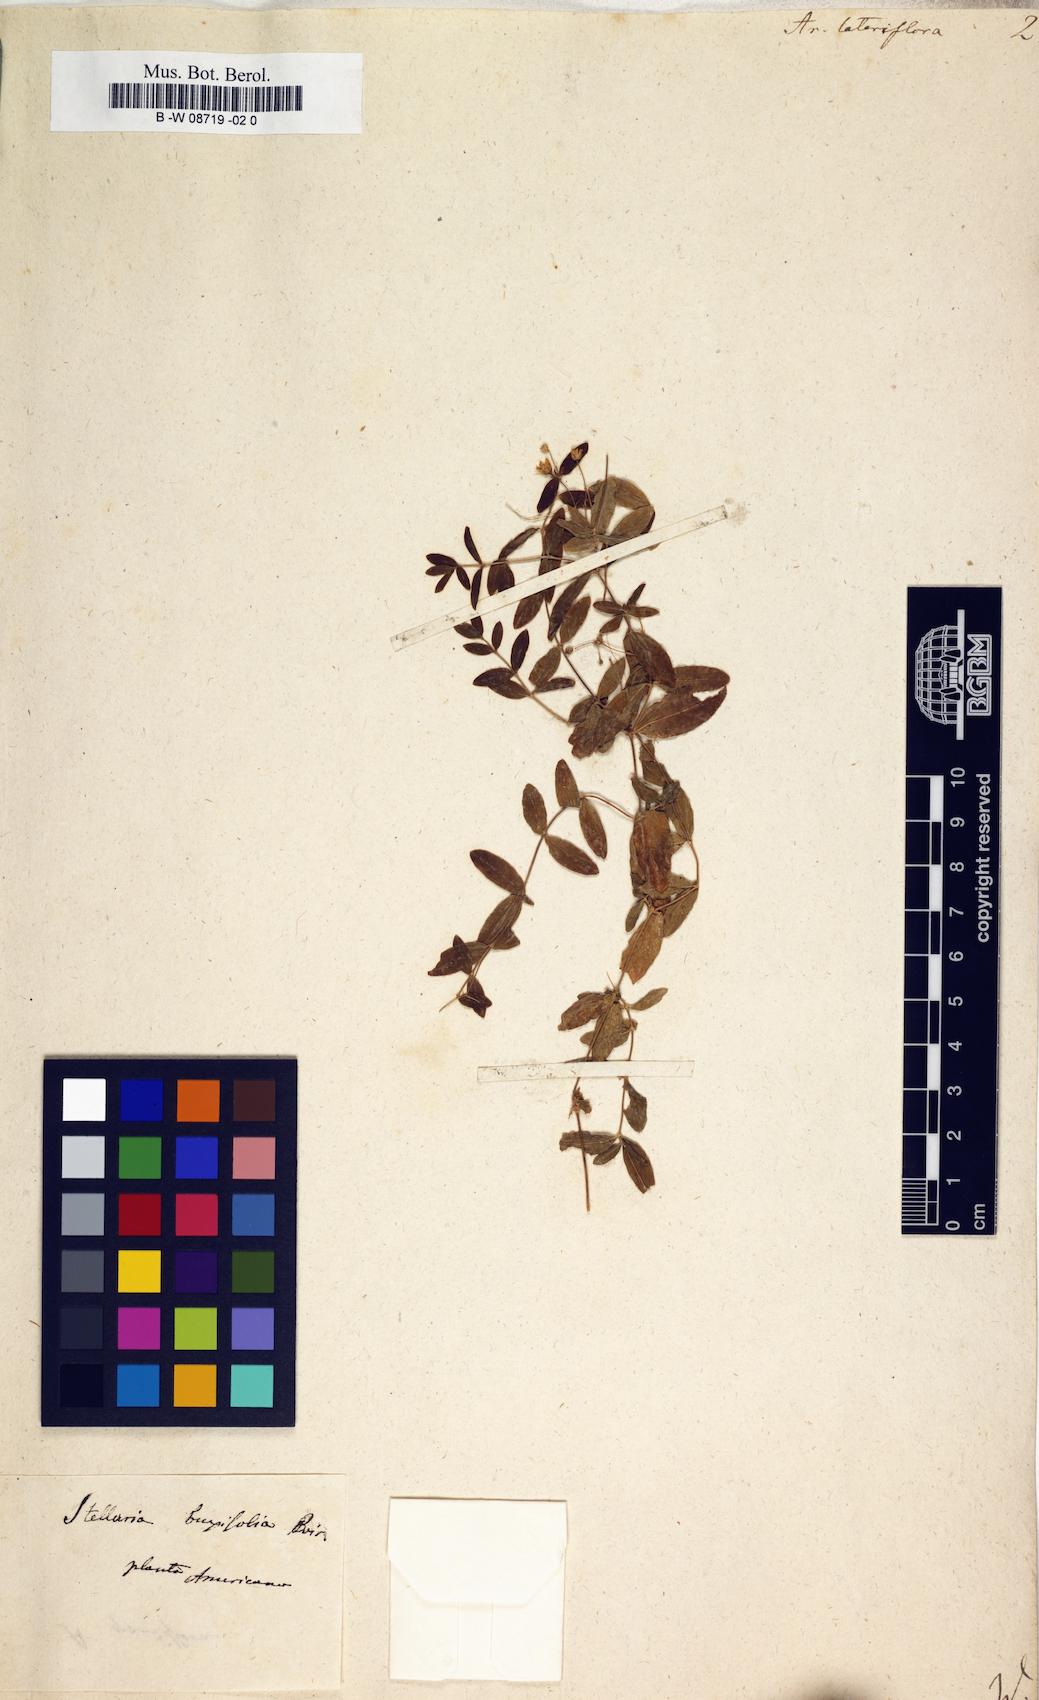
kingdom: Plantae
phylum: Tracheophyta
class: Magnoliopsida
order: Caryophyllales
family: Caryophyllaceae
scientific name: Caryophyllaceae
